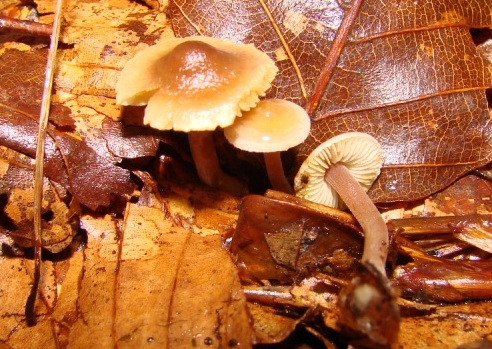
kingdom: Fungi
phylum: Basidiomycota
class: Agaricomycetes
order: Agaricales
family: Inocybaceae
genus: Inocybe
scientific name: Inocybe petiginosa
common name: liden trævlhat
